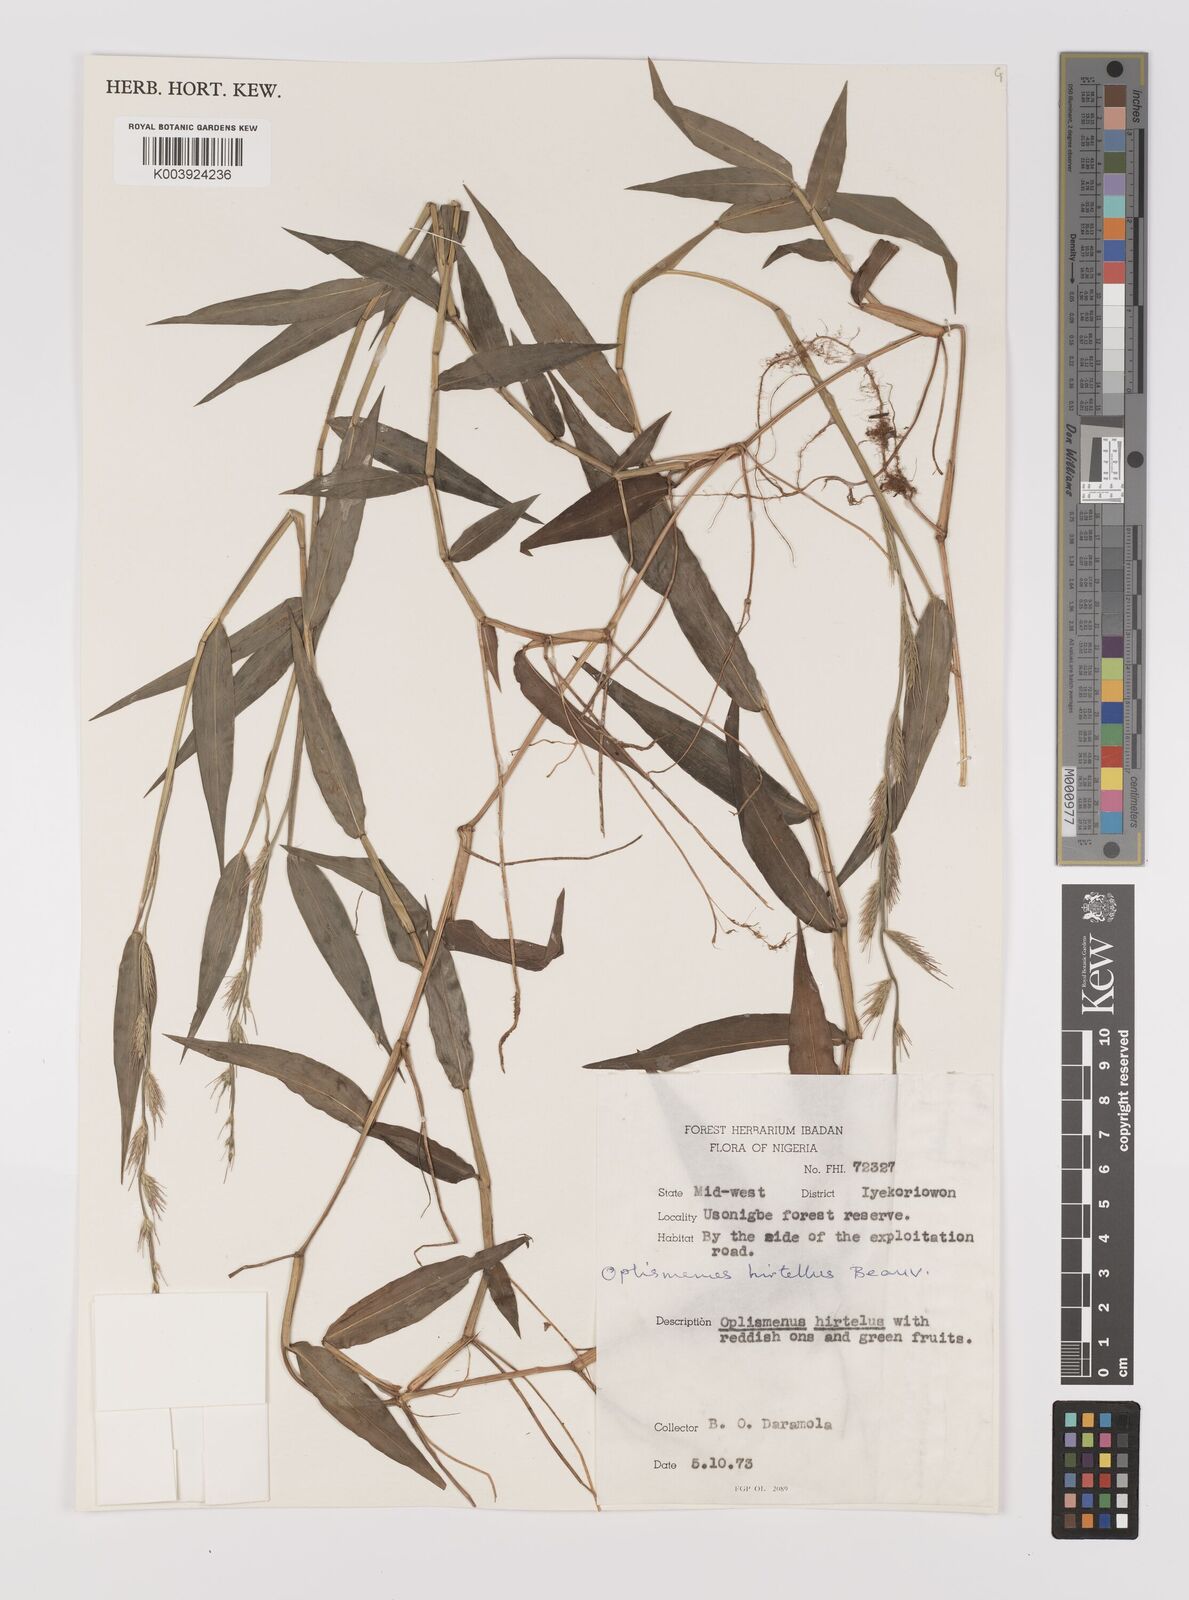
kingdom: Plantae
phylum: Tracheophyta
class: Liliopsida
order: Poales
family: Poaceae
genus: Oplismenus
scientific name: Oplismenus hirtellus
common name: Basketgrass
